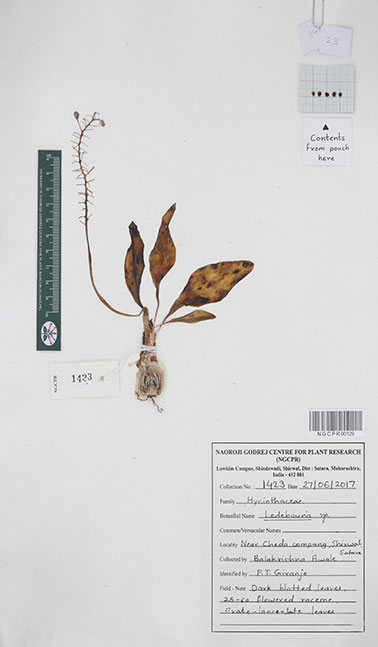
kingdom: Plantae
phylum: Tracheophyta
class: Liliopsida
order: Asparagales
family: Asparagaceae
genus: Ledebouria
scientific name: Ledebouria
